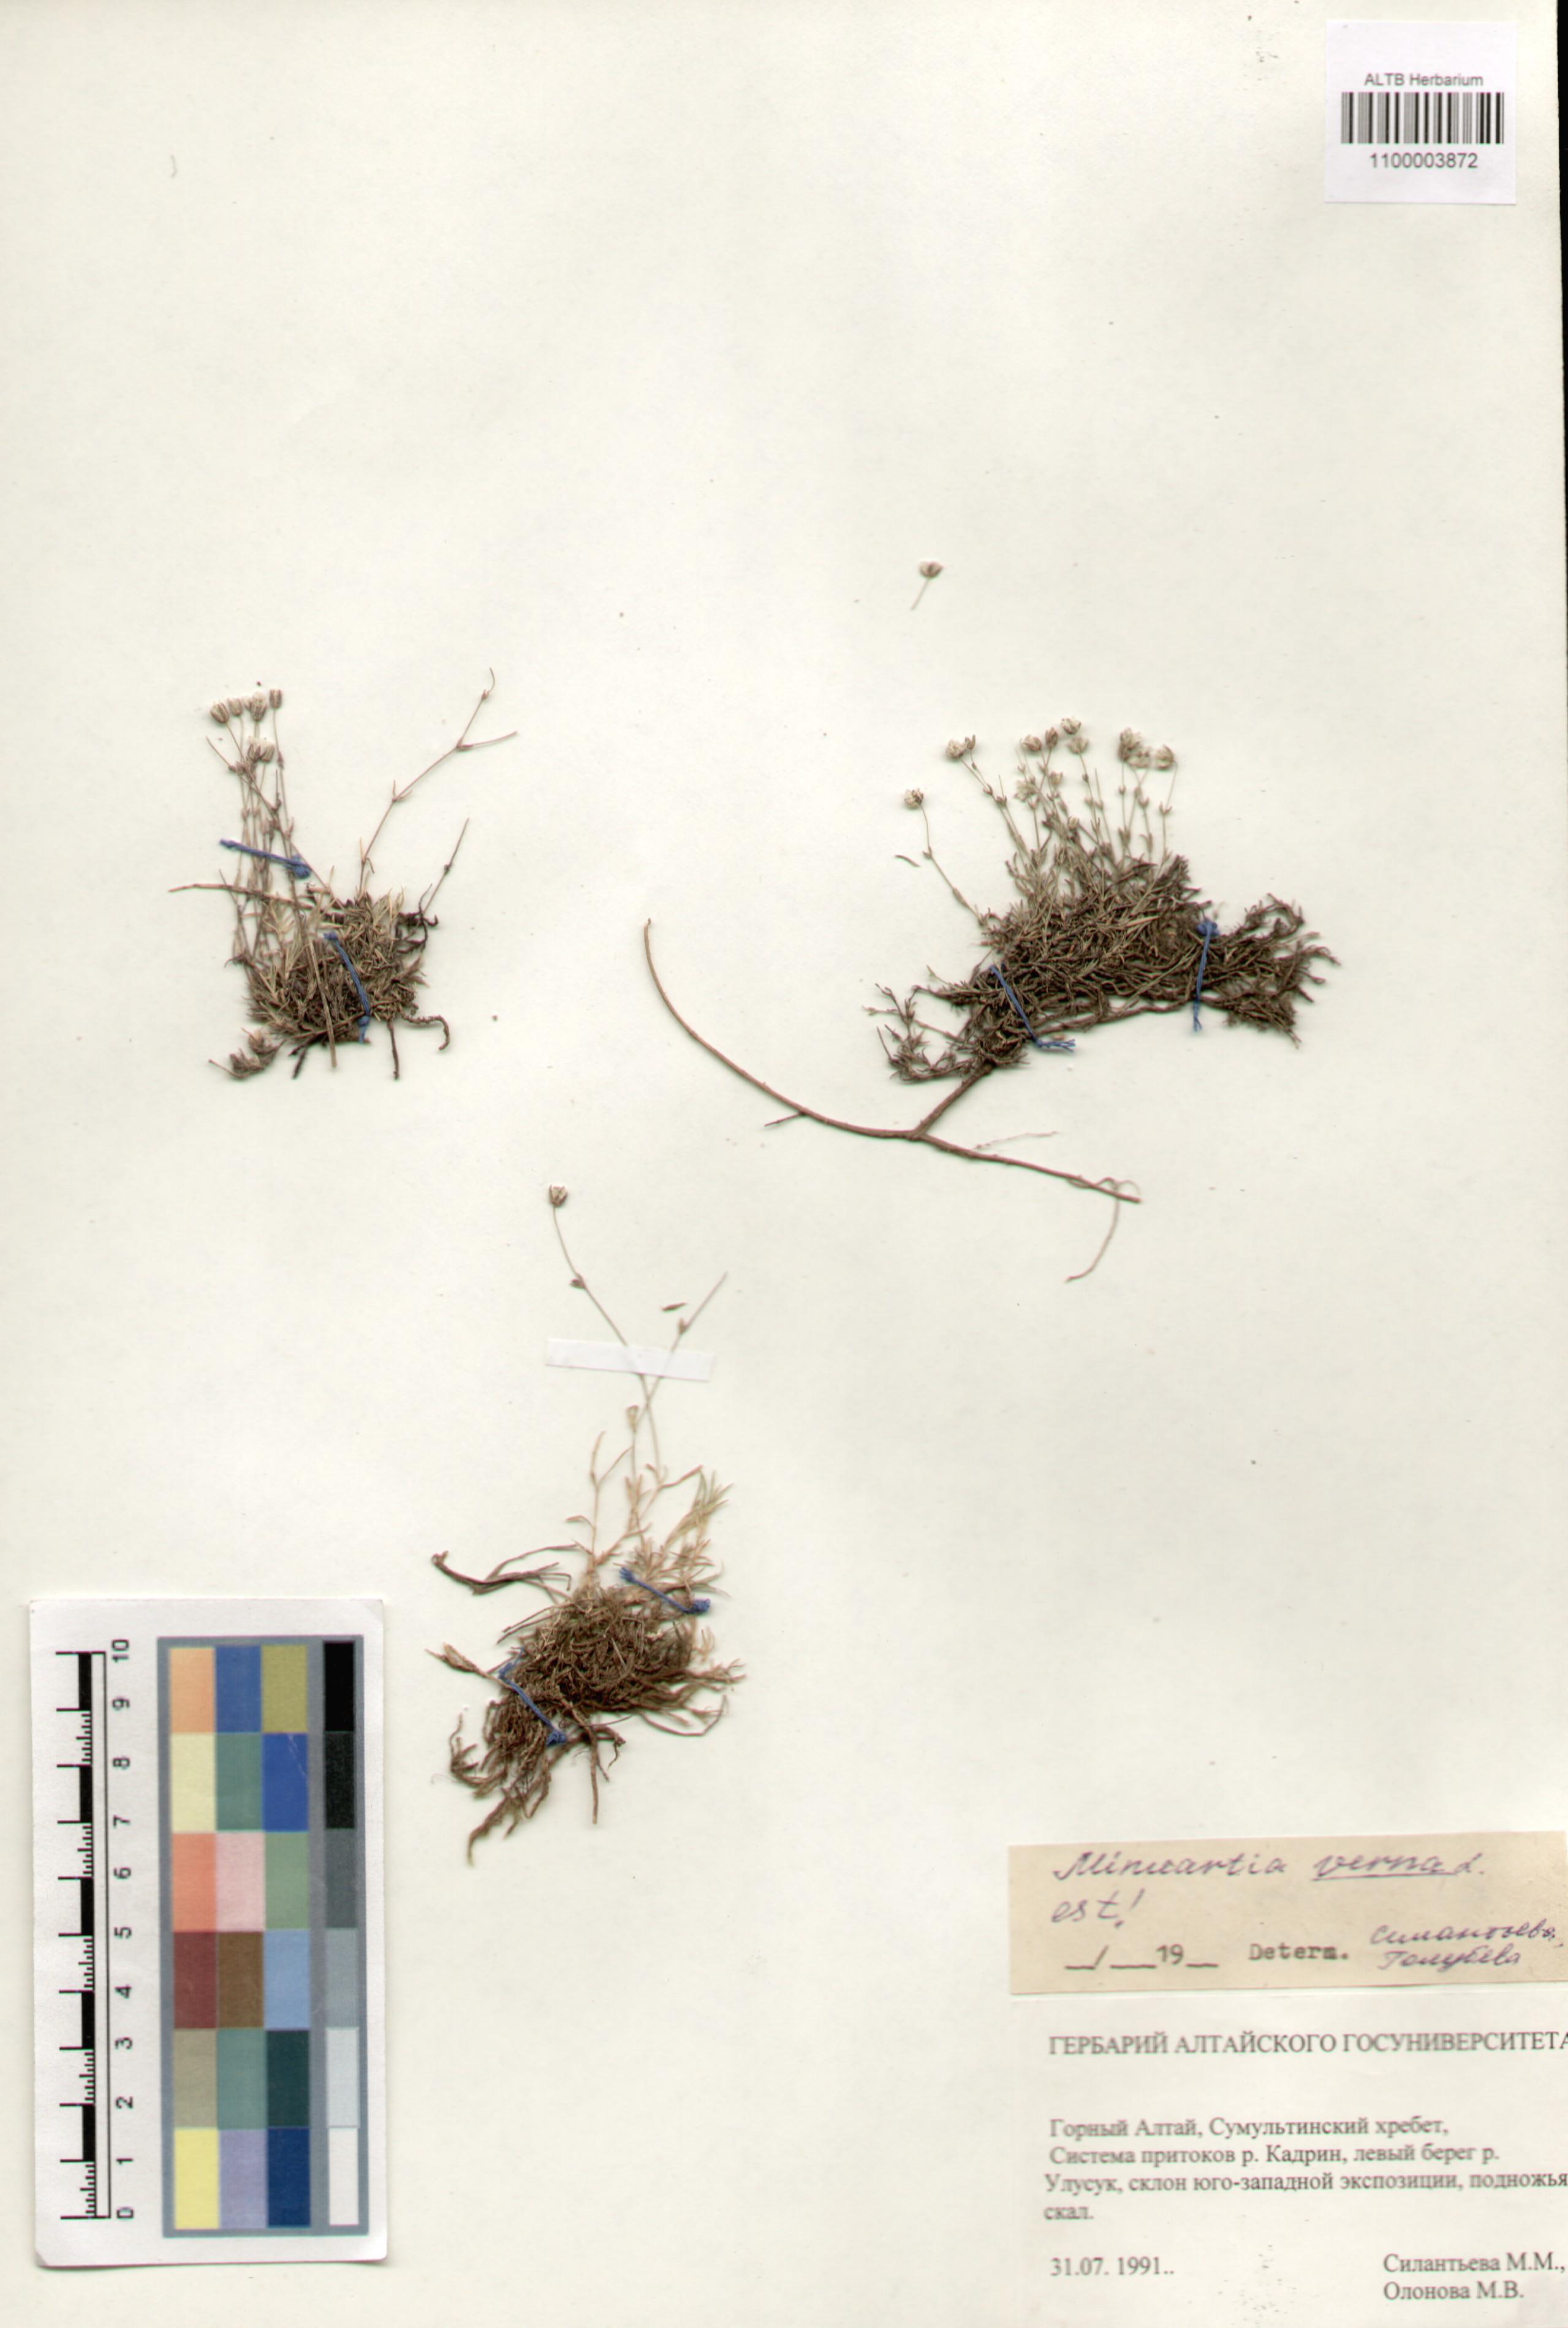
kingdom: Plantae
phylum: Tracheophyta
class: Magnoliopsida
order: Caryophyllales
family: Caryophyllaceae
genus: Sabulina
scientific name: Sabulina verna
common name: Spring sandwort
